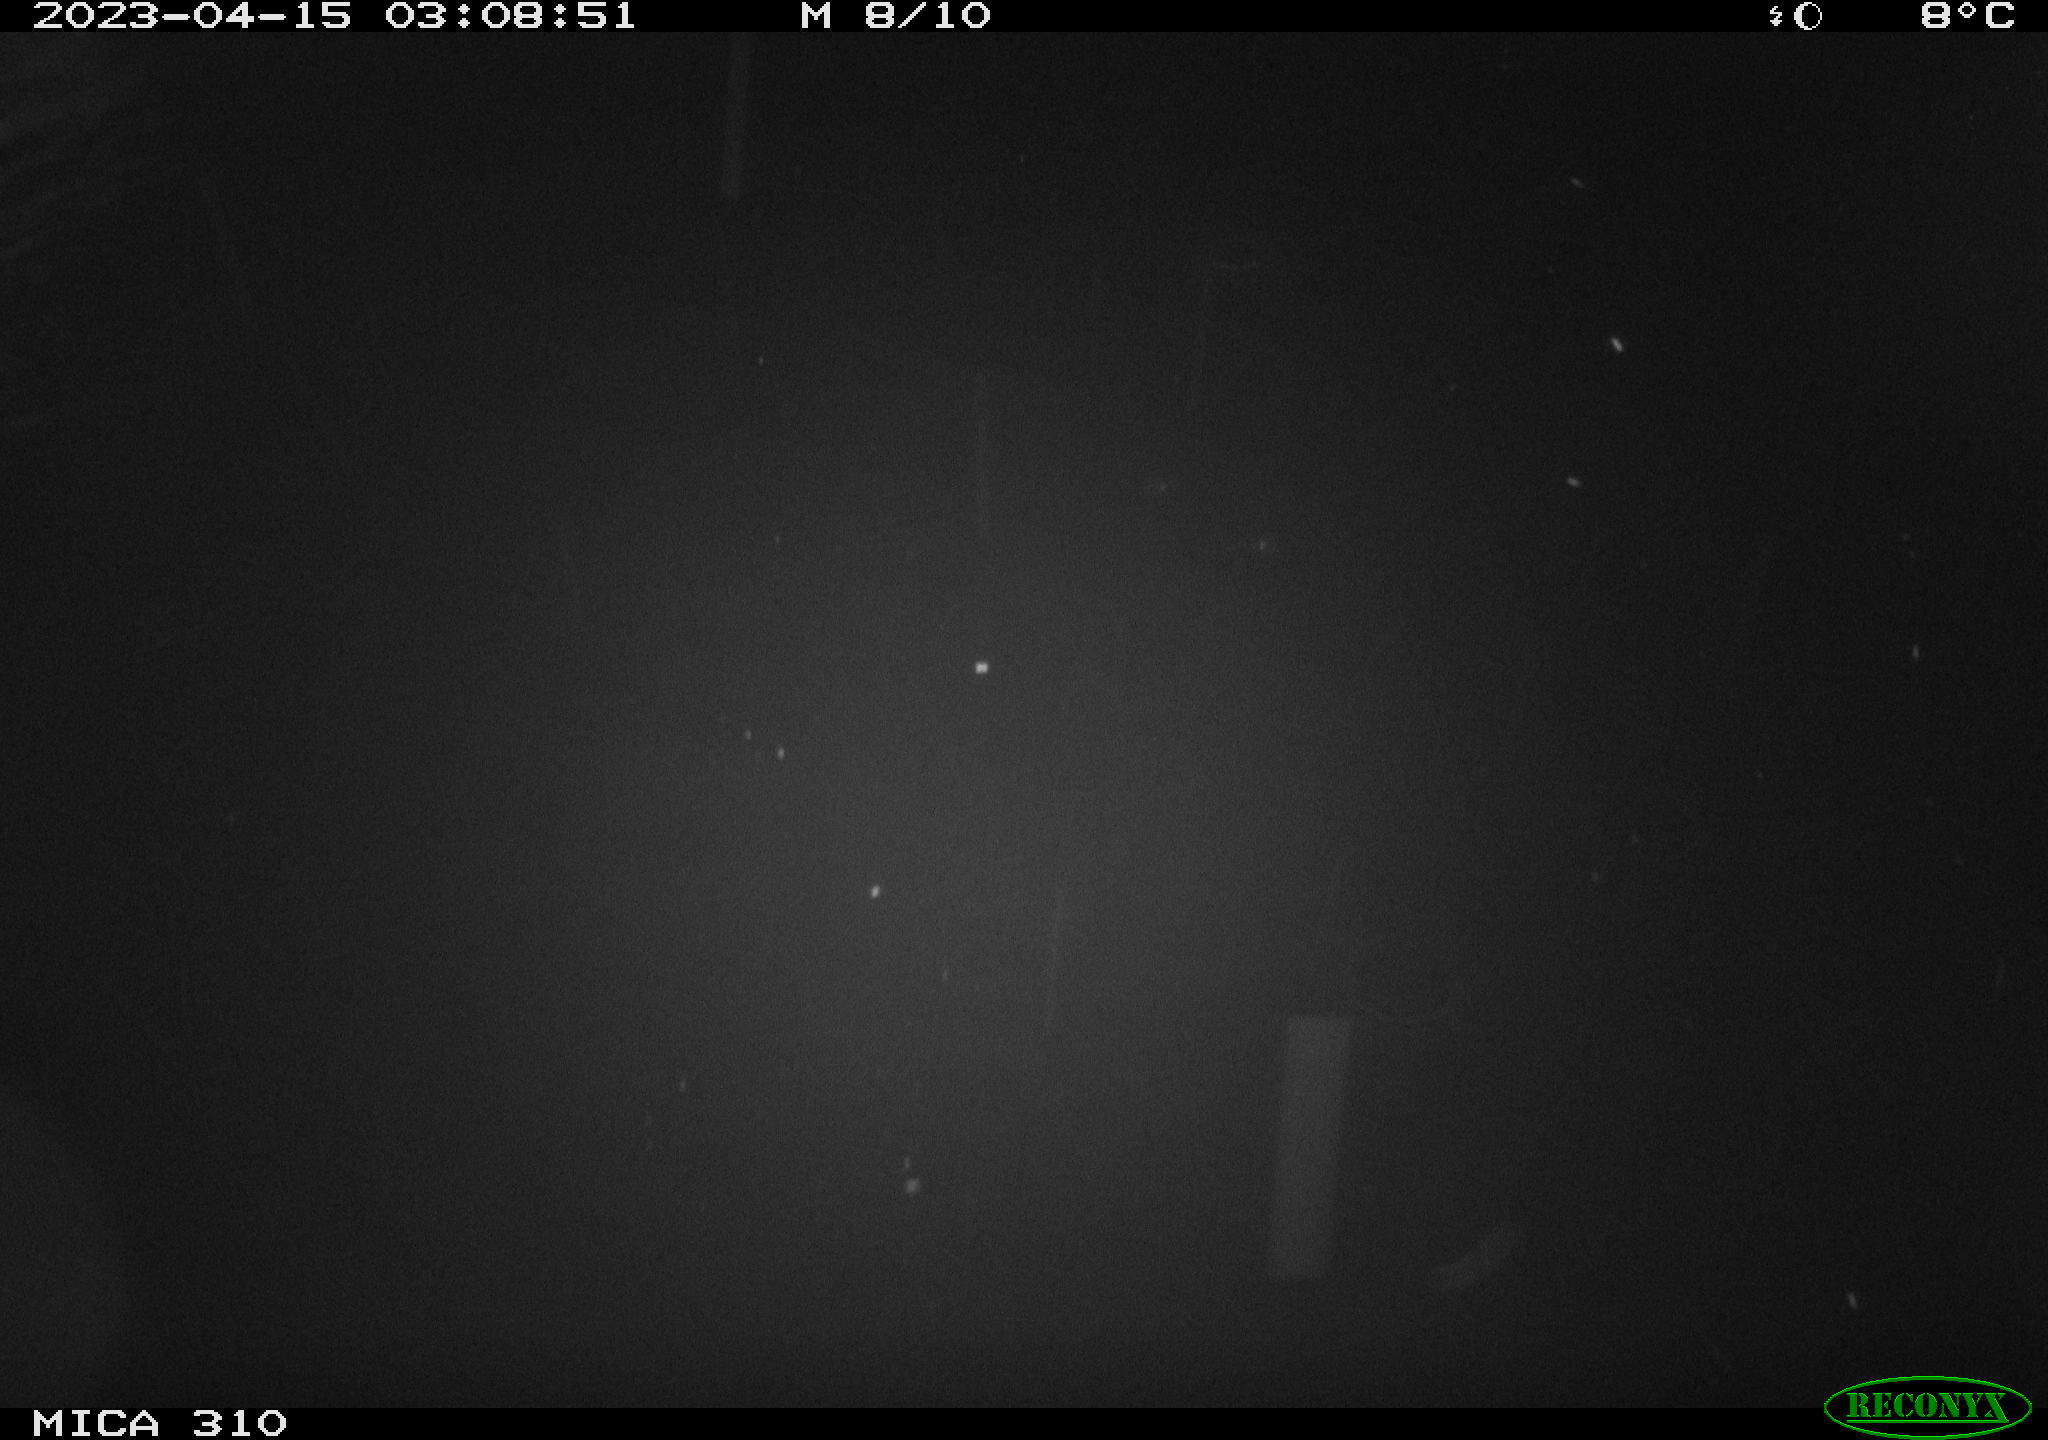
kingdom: Animalia
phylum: Chordata
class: Mammalia
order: Rodentia
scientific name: Rodentia
